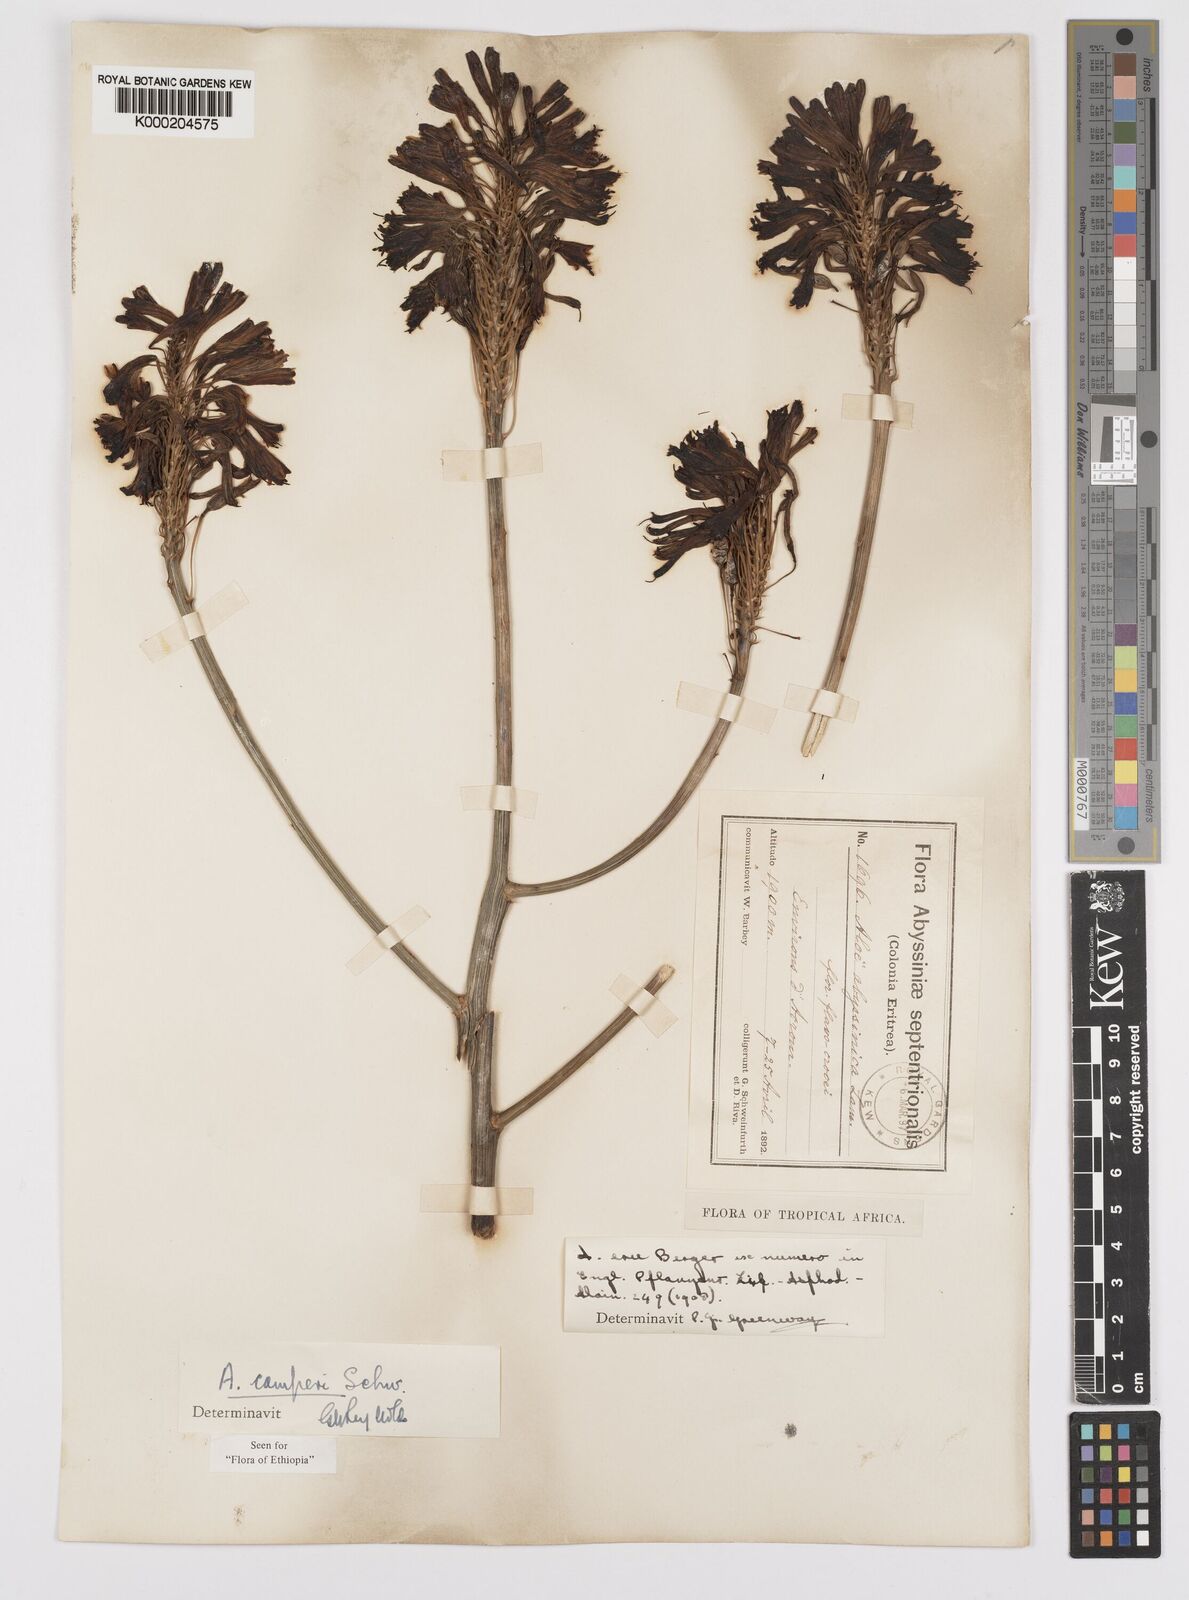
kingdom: Plantae
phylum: Tracheophyta
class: Liliopsida
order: Asparagales
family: Asphodelaceae
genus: Aloe
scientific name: Aloe camperi
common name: Camper's aloe
